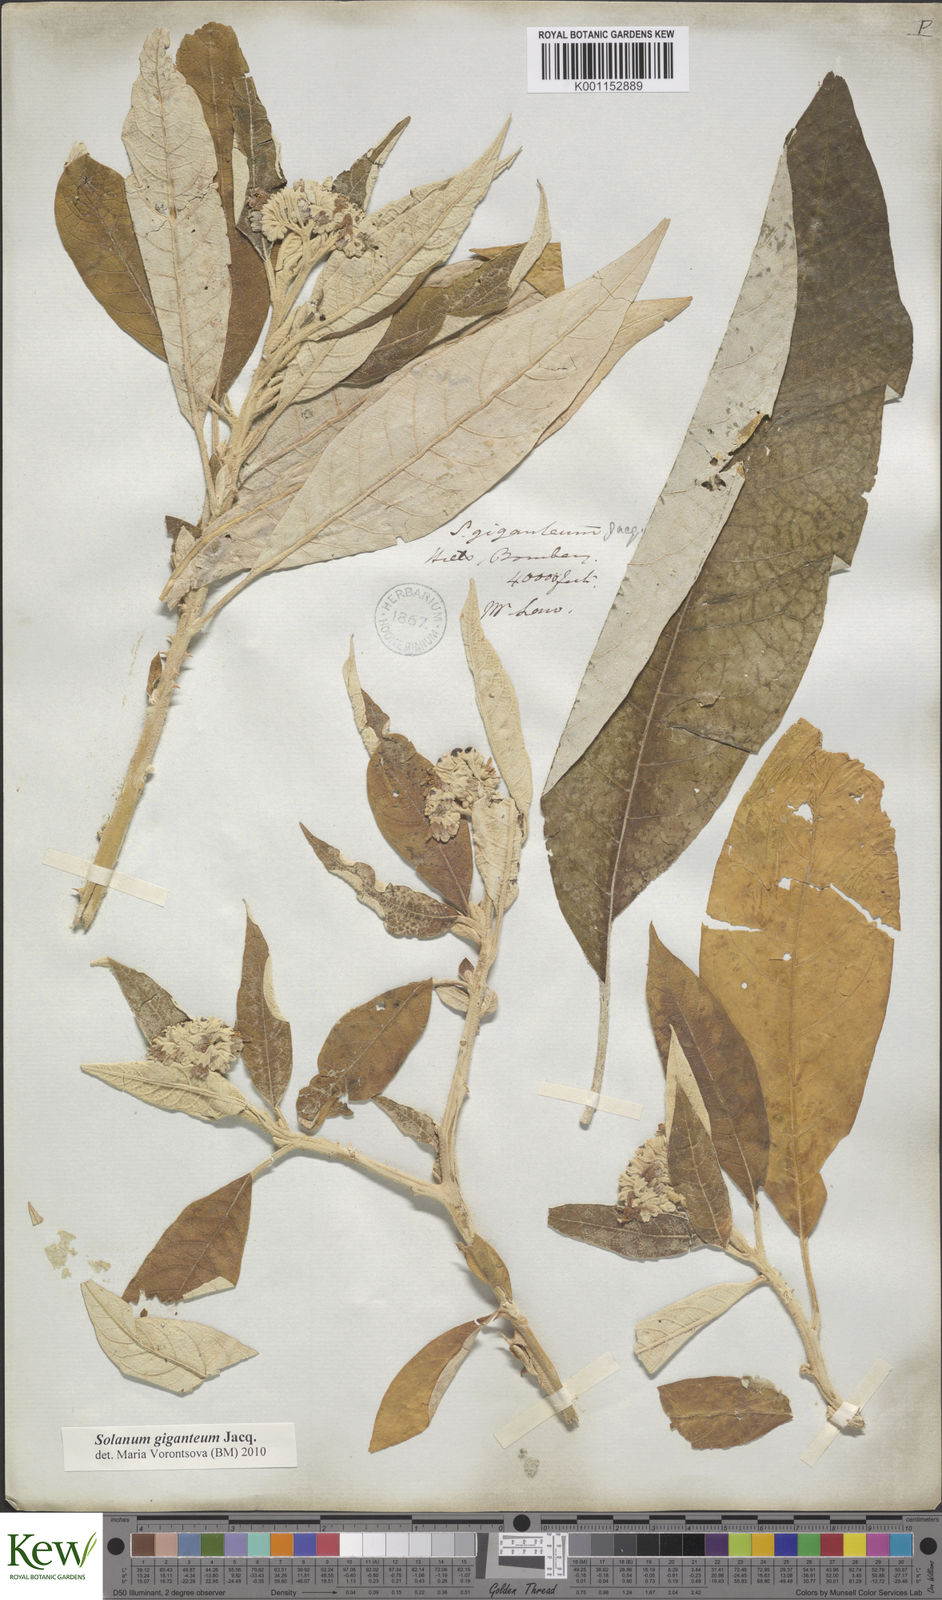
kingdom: Plantae
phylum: Tracheophyta
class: Magnoliopsida
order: Solanales
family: Solanaceae
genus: Solanum
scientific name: Solanum giganteum
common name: Healing-leaf-tree
